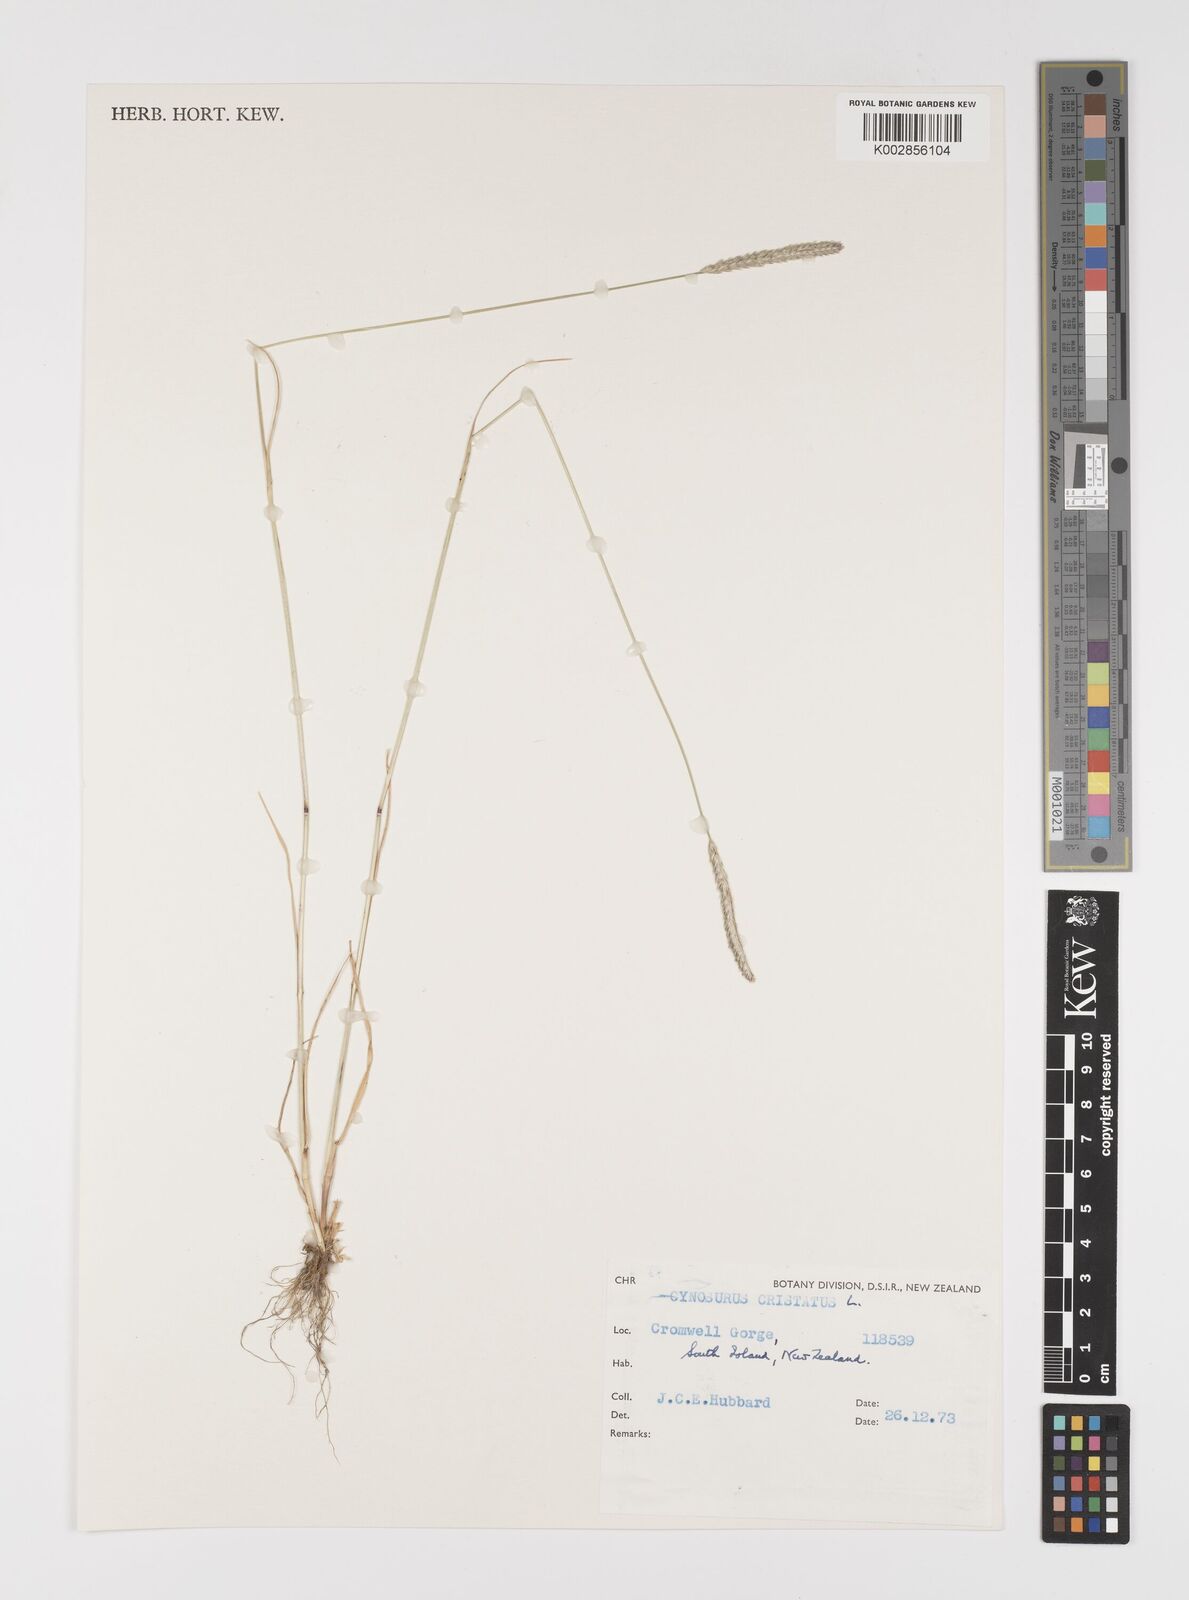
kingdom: Plantae
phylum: Tracheophyta
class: Liliopsida
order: Poales
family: Poaceae
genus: Cynosurus
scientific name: Cynosurus cristatus
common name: Crested dog's-tail
